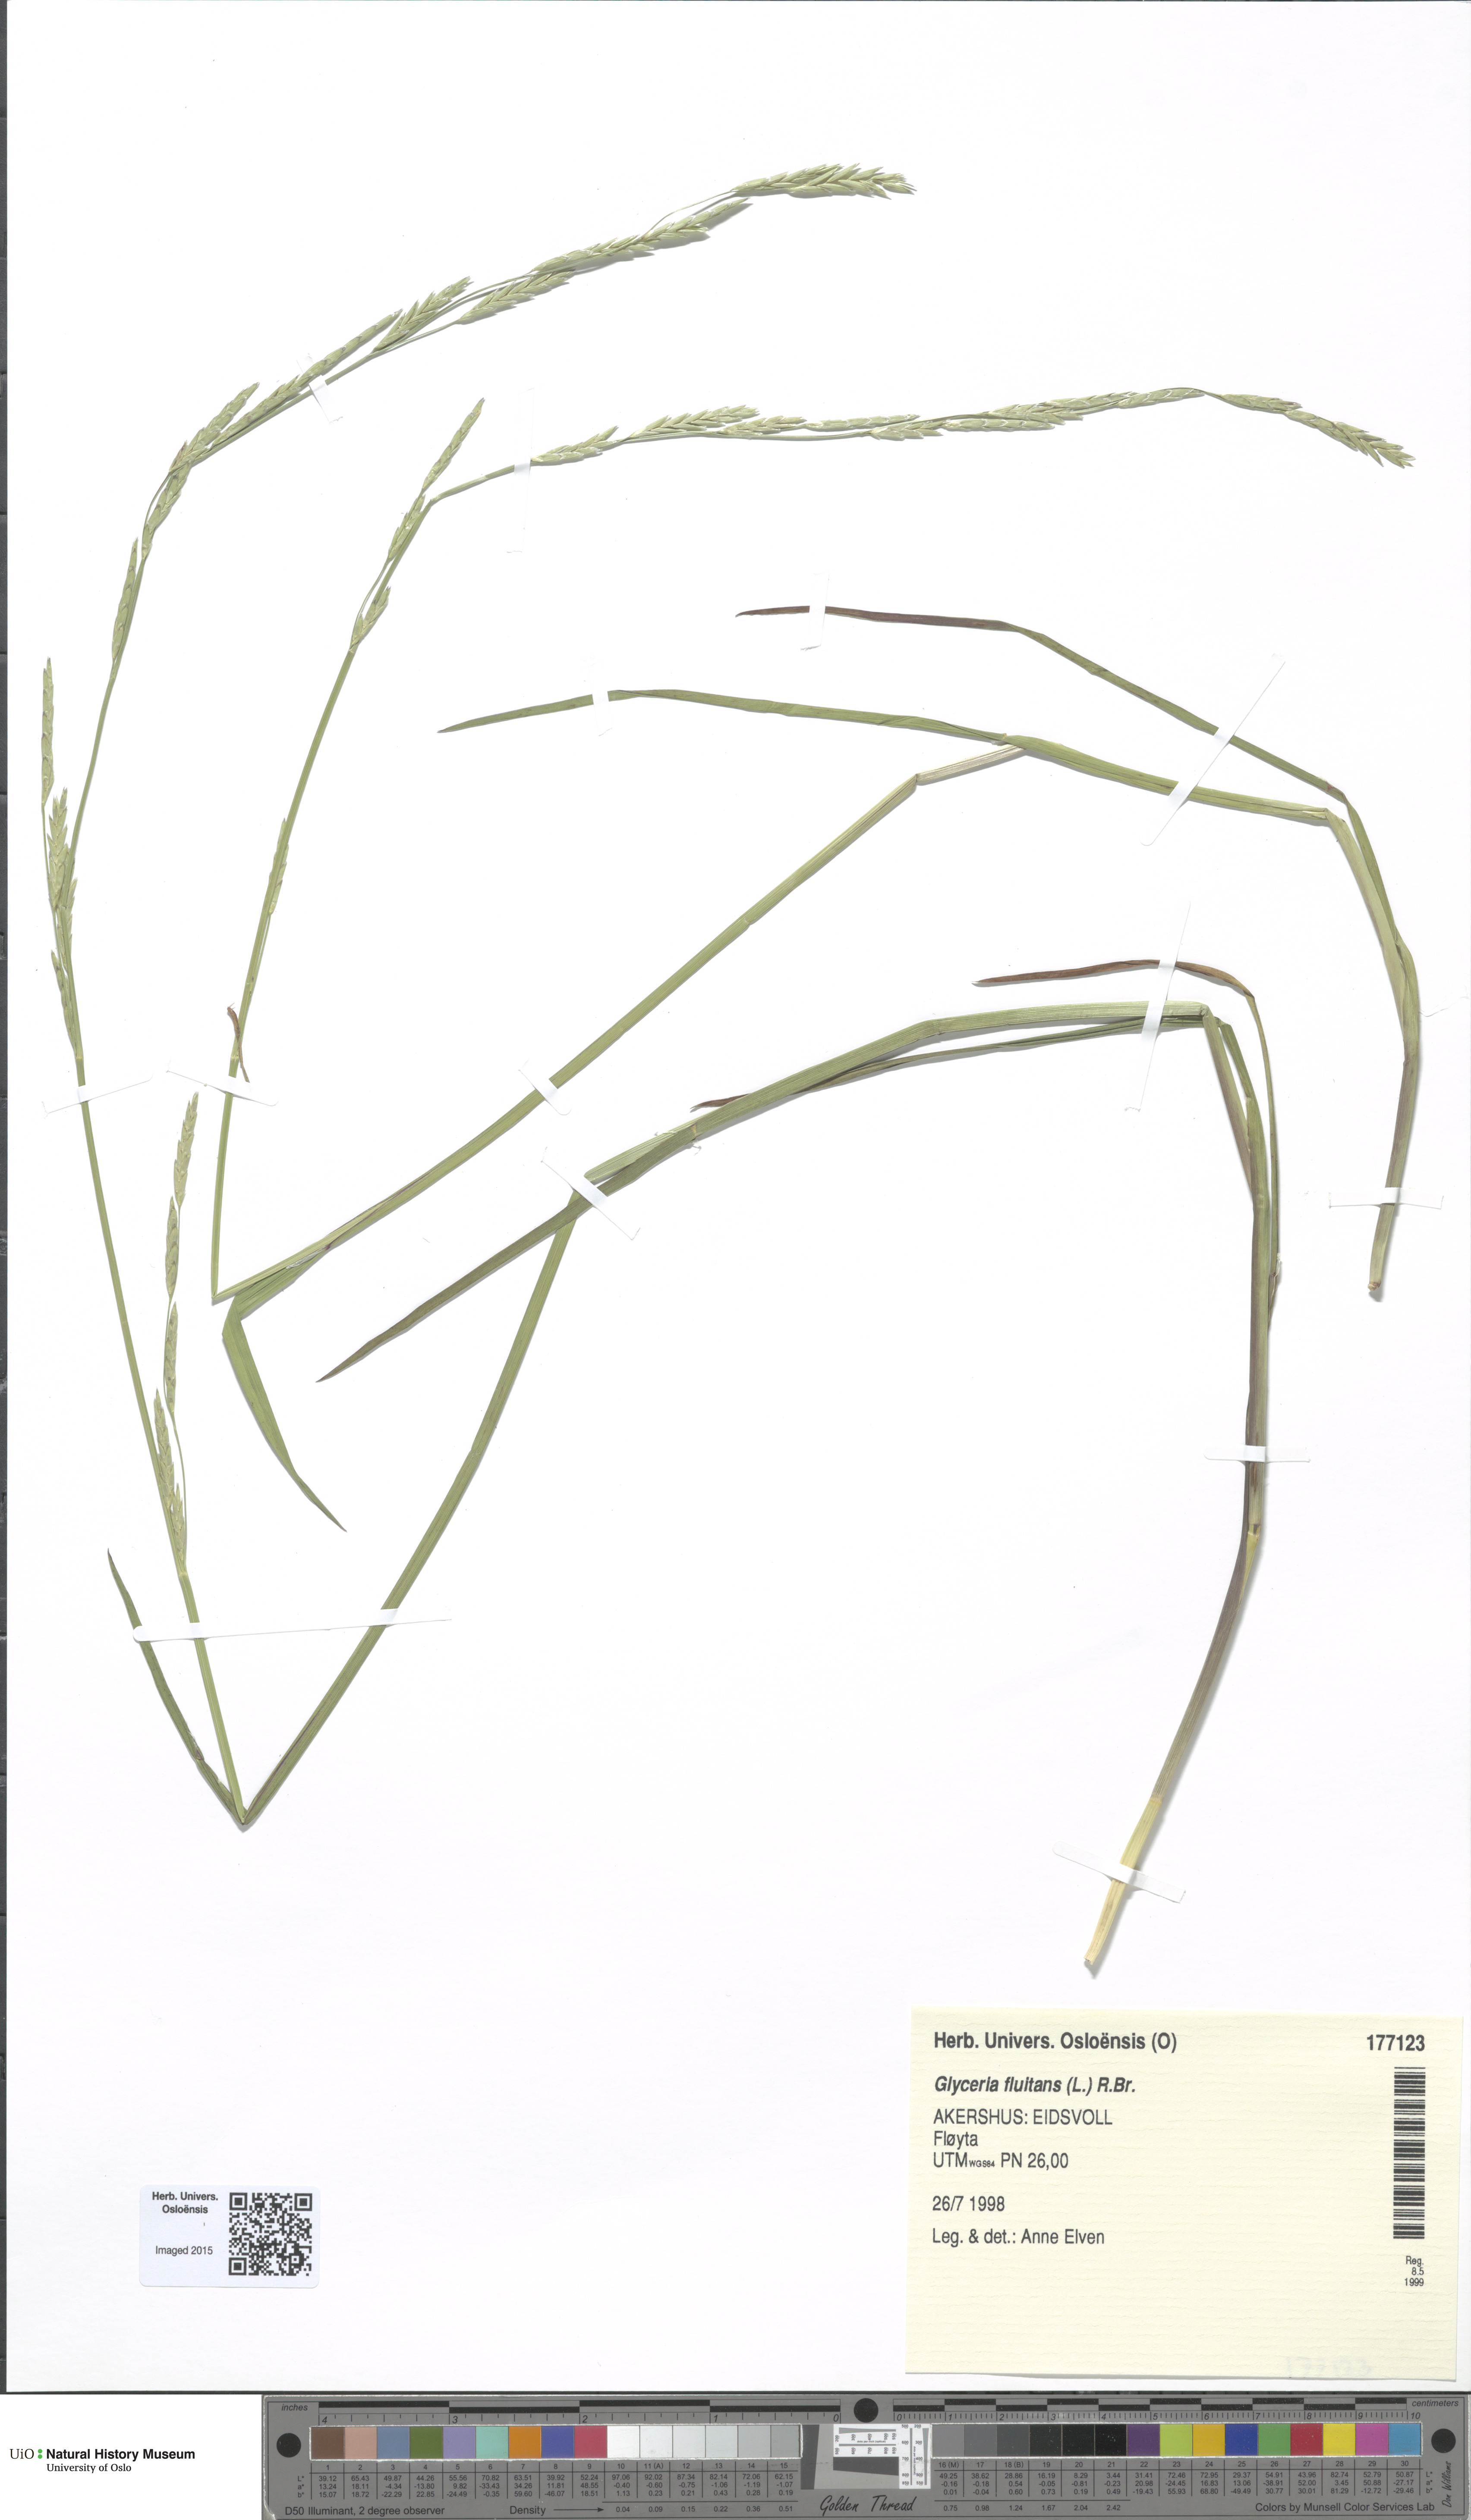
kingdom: Plantae
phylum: Tracheophyta
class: Liliopsida
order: Poales
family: Poaceae
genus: Glyceria
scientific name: Glyceria fluitans
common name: Floating sweet-grass
